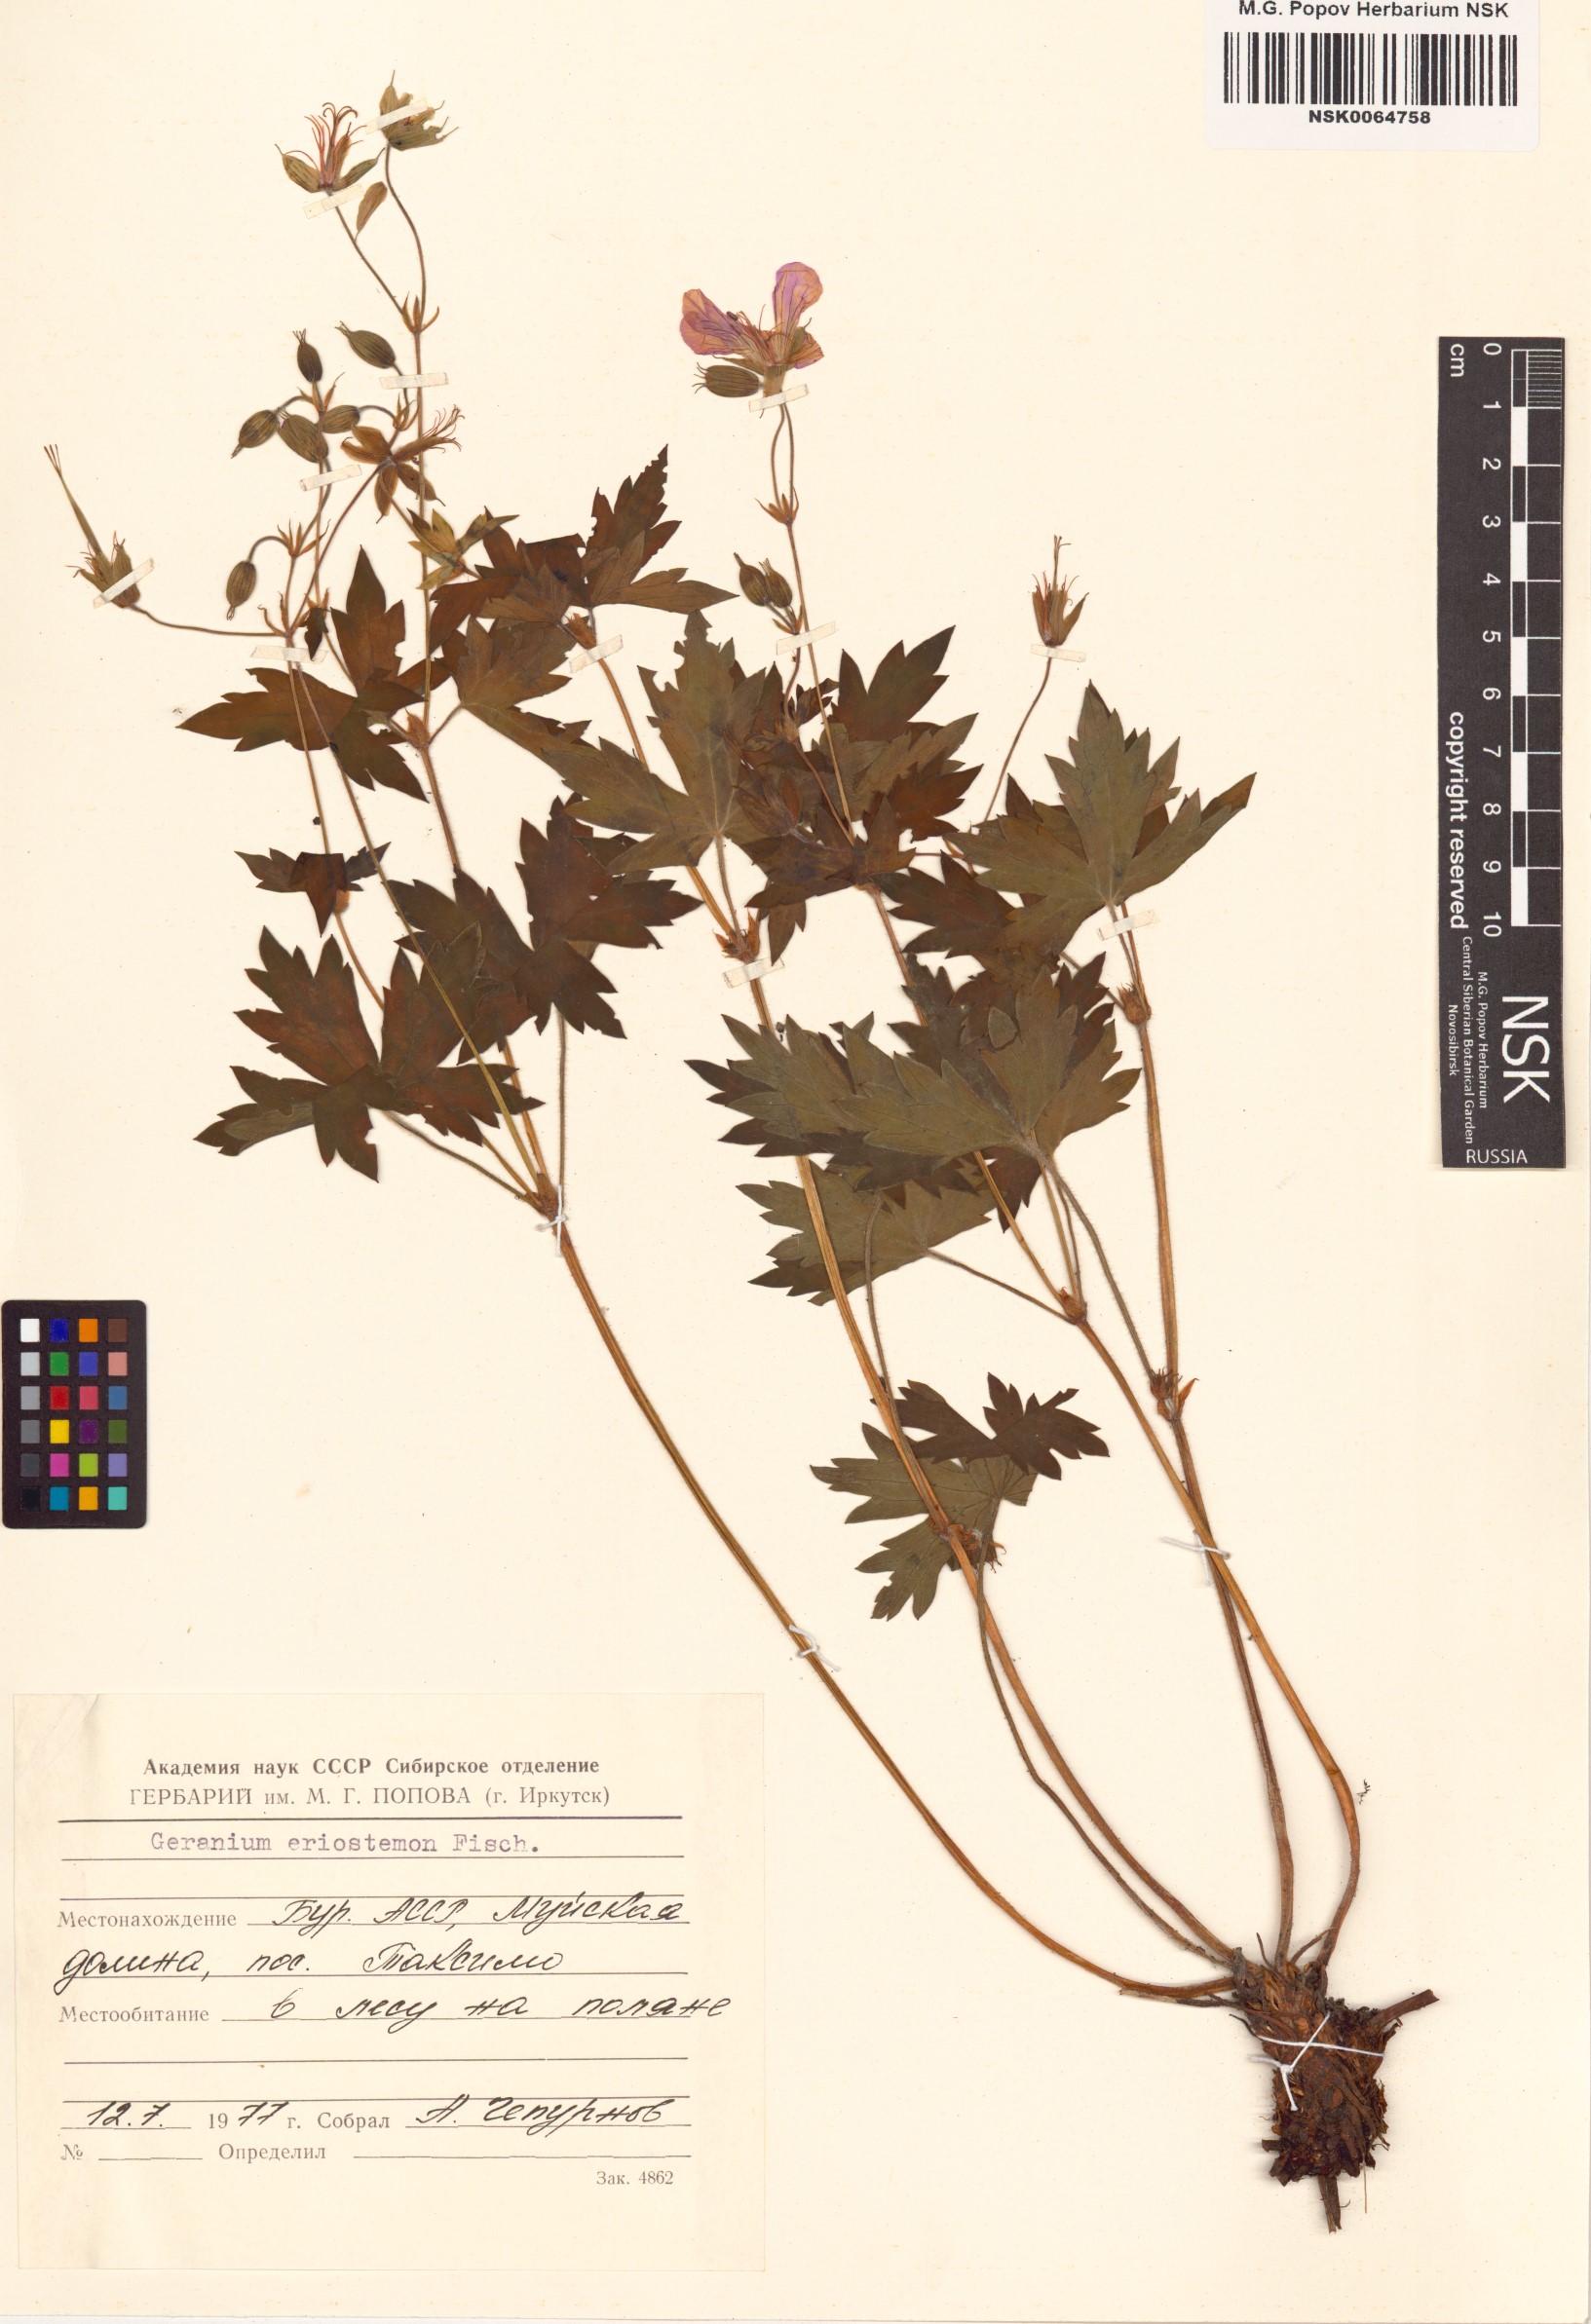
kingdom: Plantae
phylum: Tracheophyta
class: Magnoliopsida
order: Geraniales
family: Geraniaceae
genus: Geranium
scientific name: Geranium platyanthum
